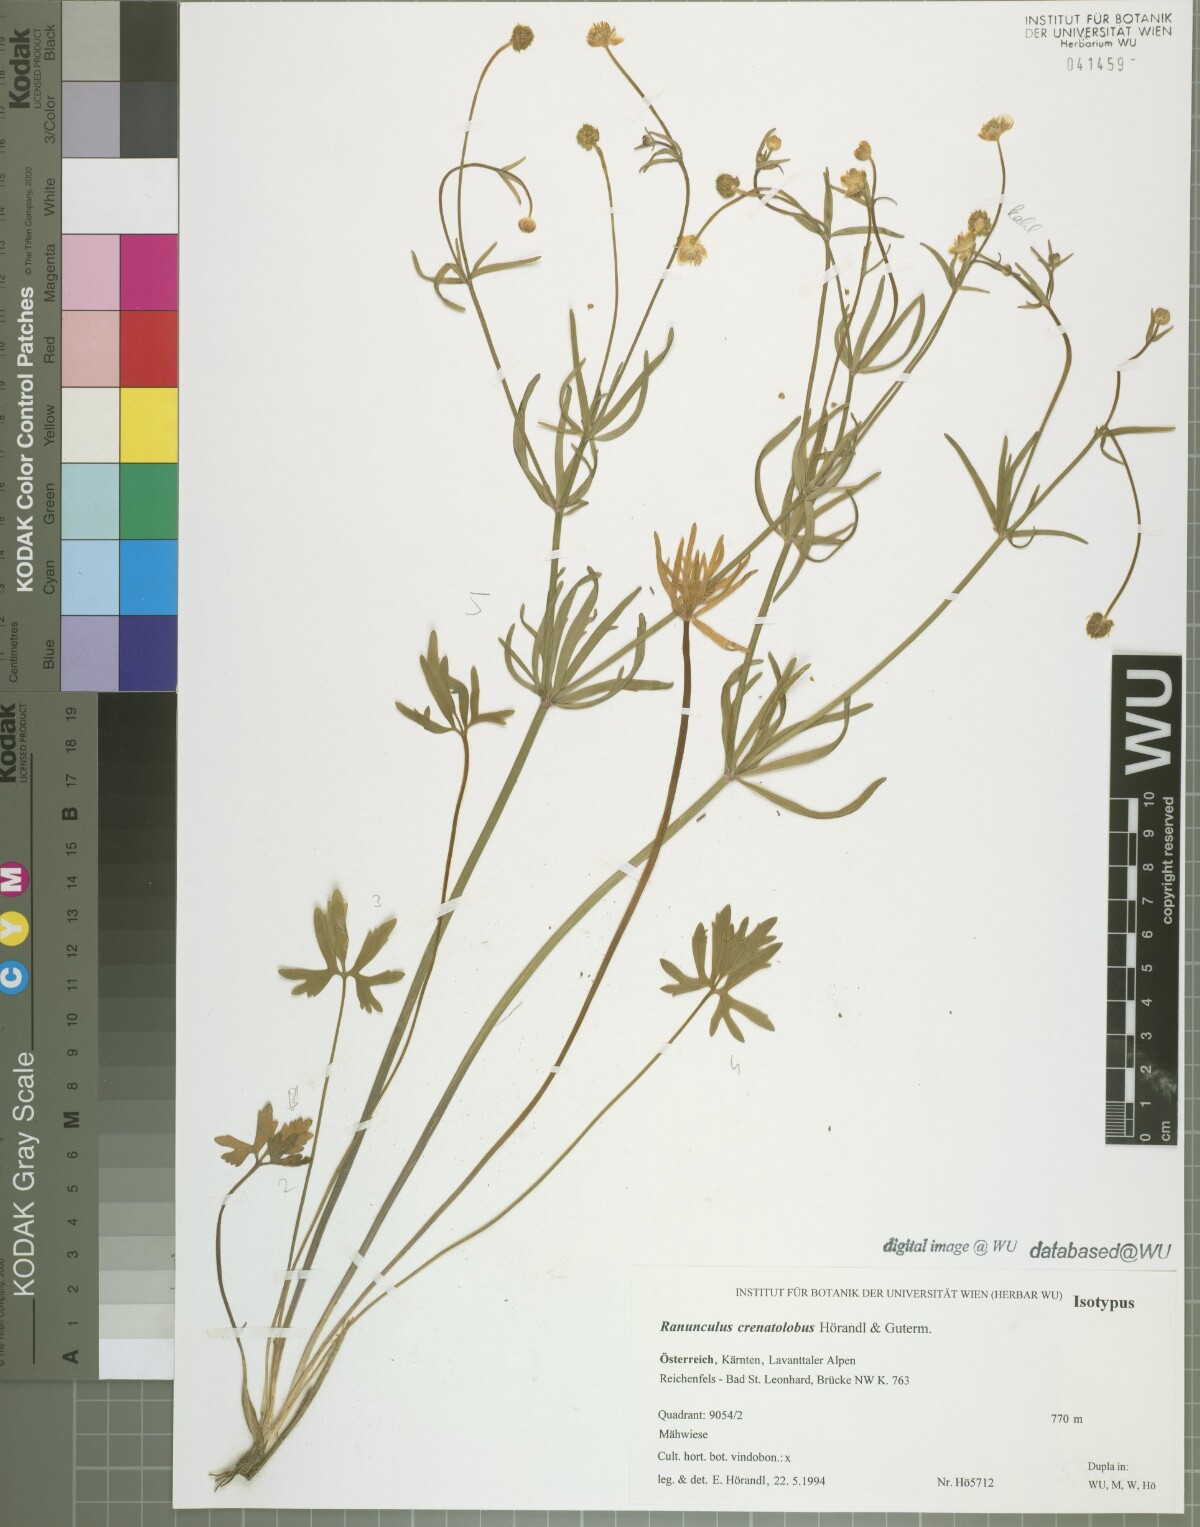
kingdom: Plantae
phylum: Tracheophyta
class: Magnoliopsida
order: Ranunculales
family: Ranunculaceae
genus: Ranunculus
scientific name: Ranunculus crenatolobus
